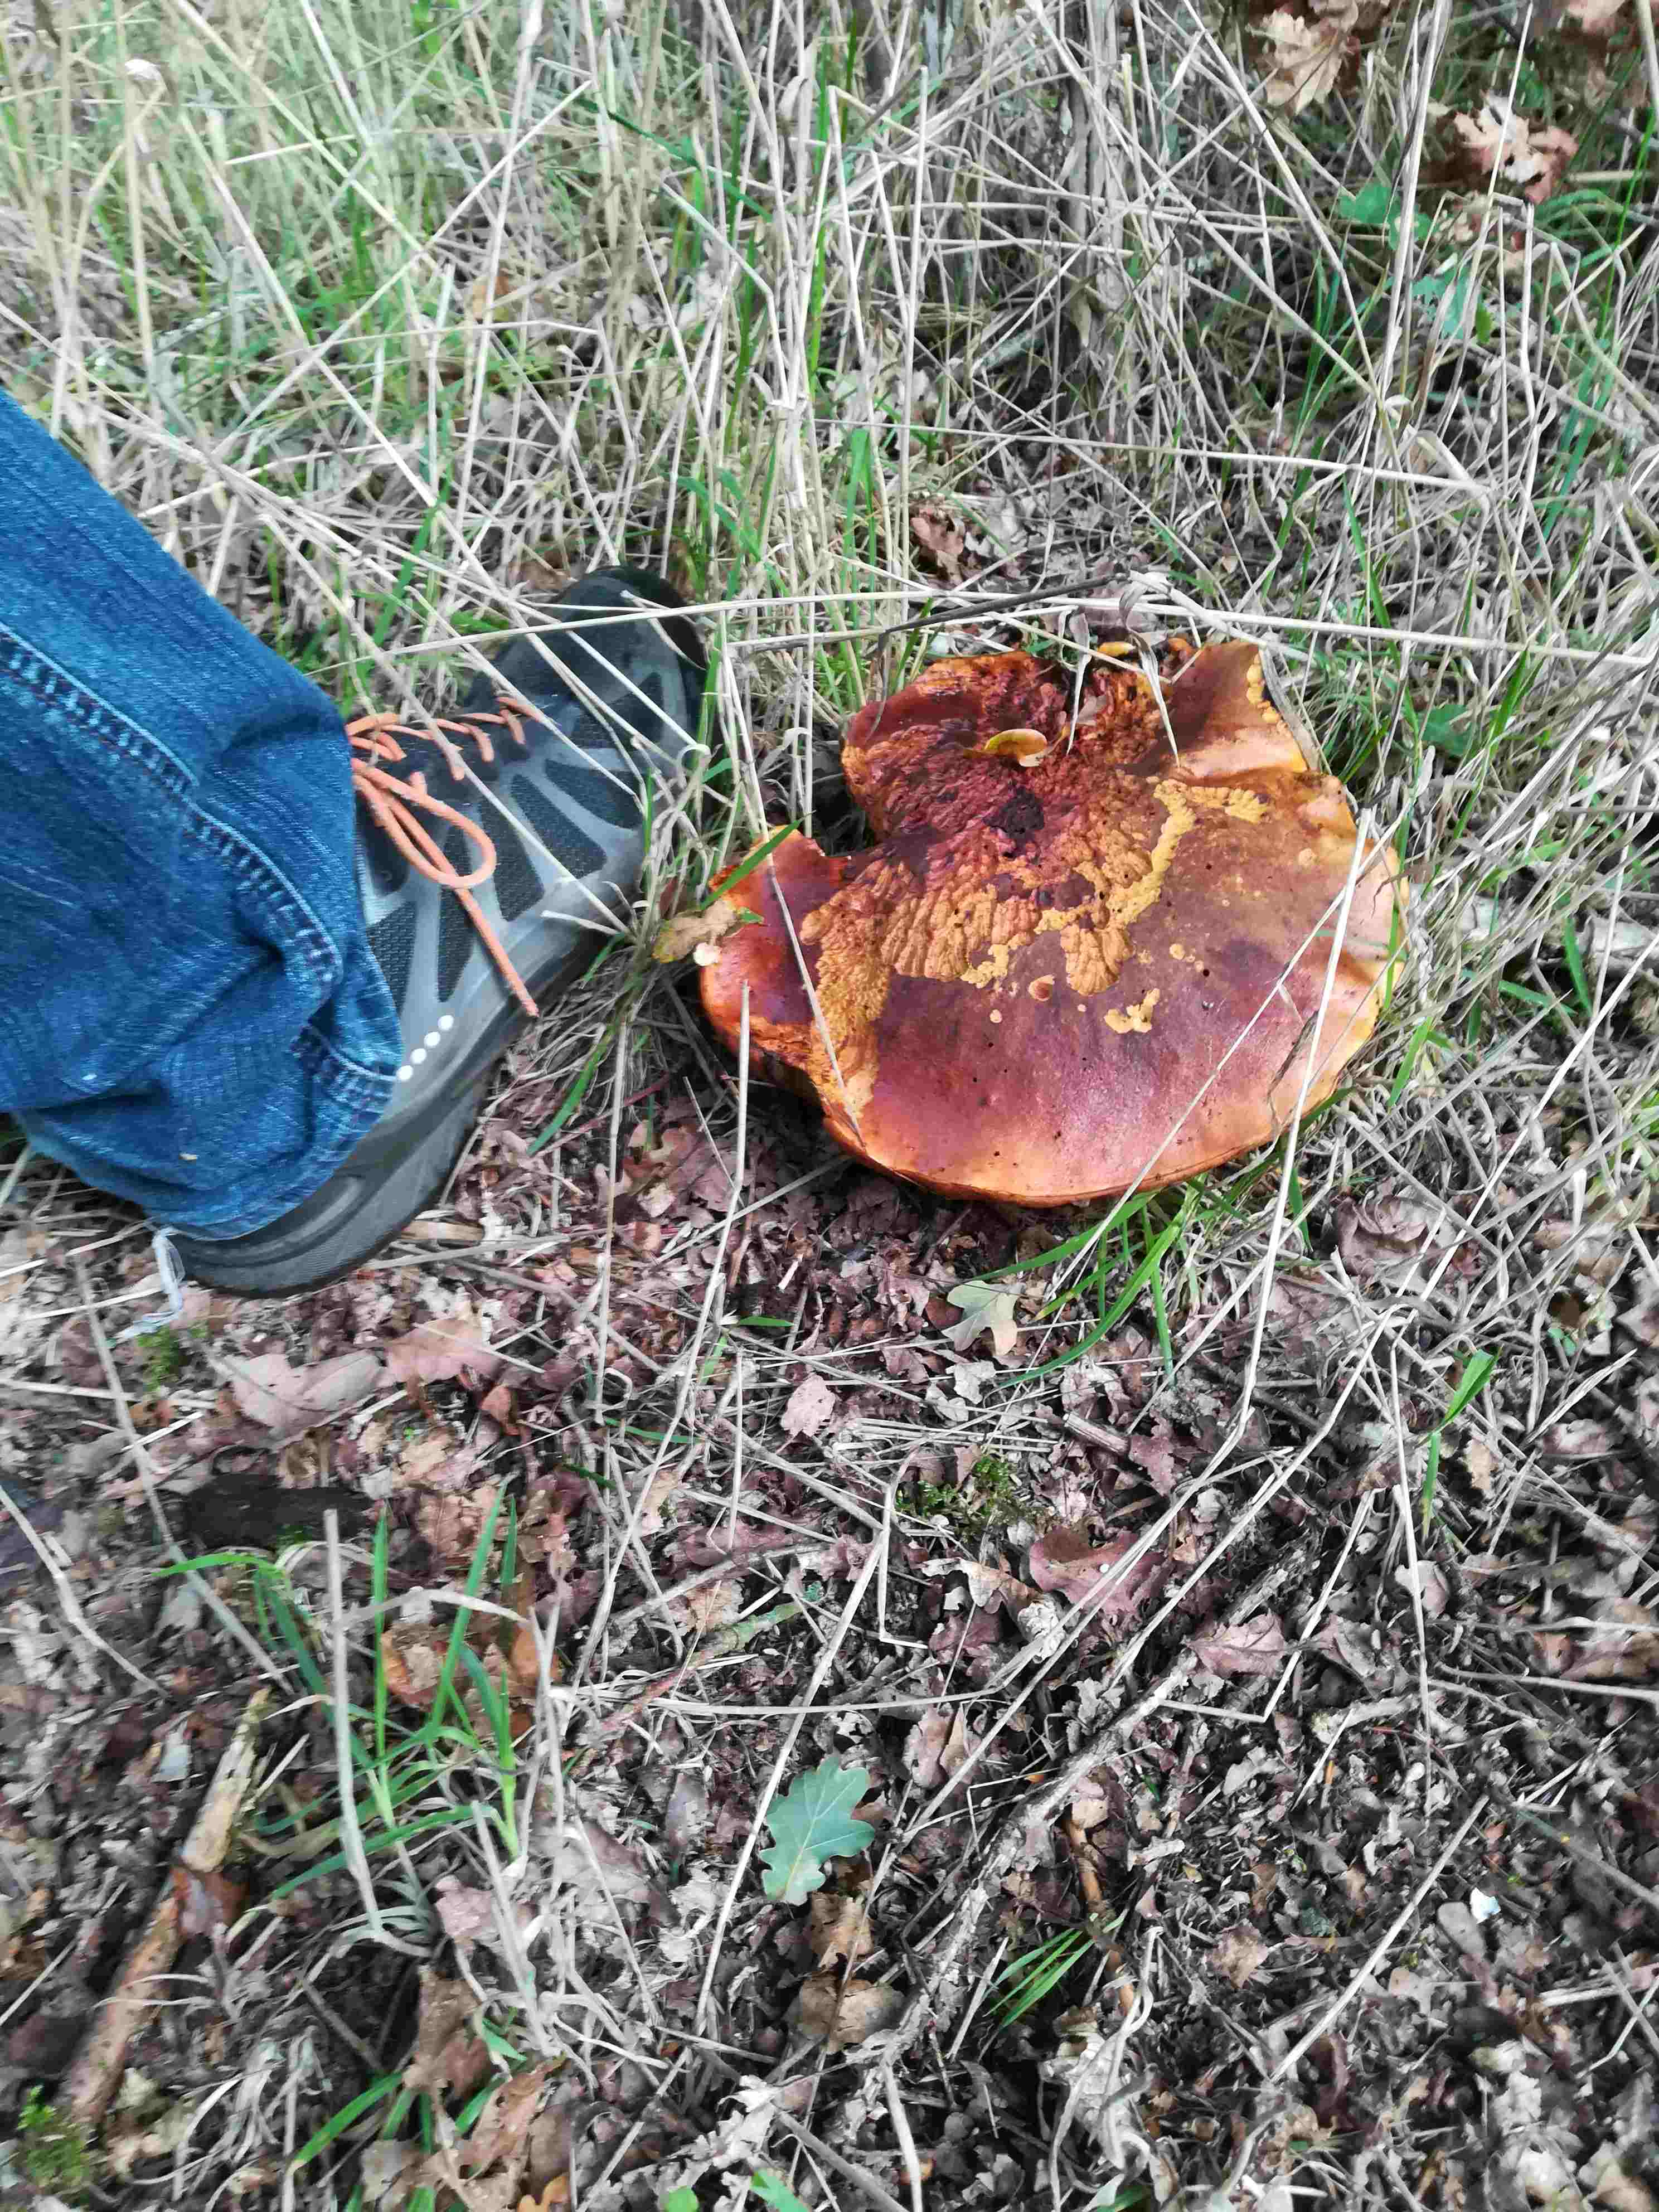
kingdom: Fungi
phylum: Basidiomycota
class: Agaricomycetes
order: Boletales
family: Boletaceae
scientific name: Boletaceae
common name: rørhatfamilien
